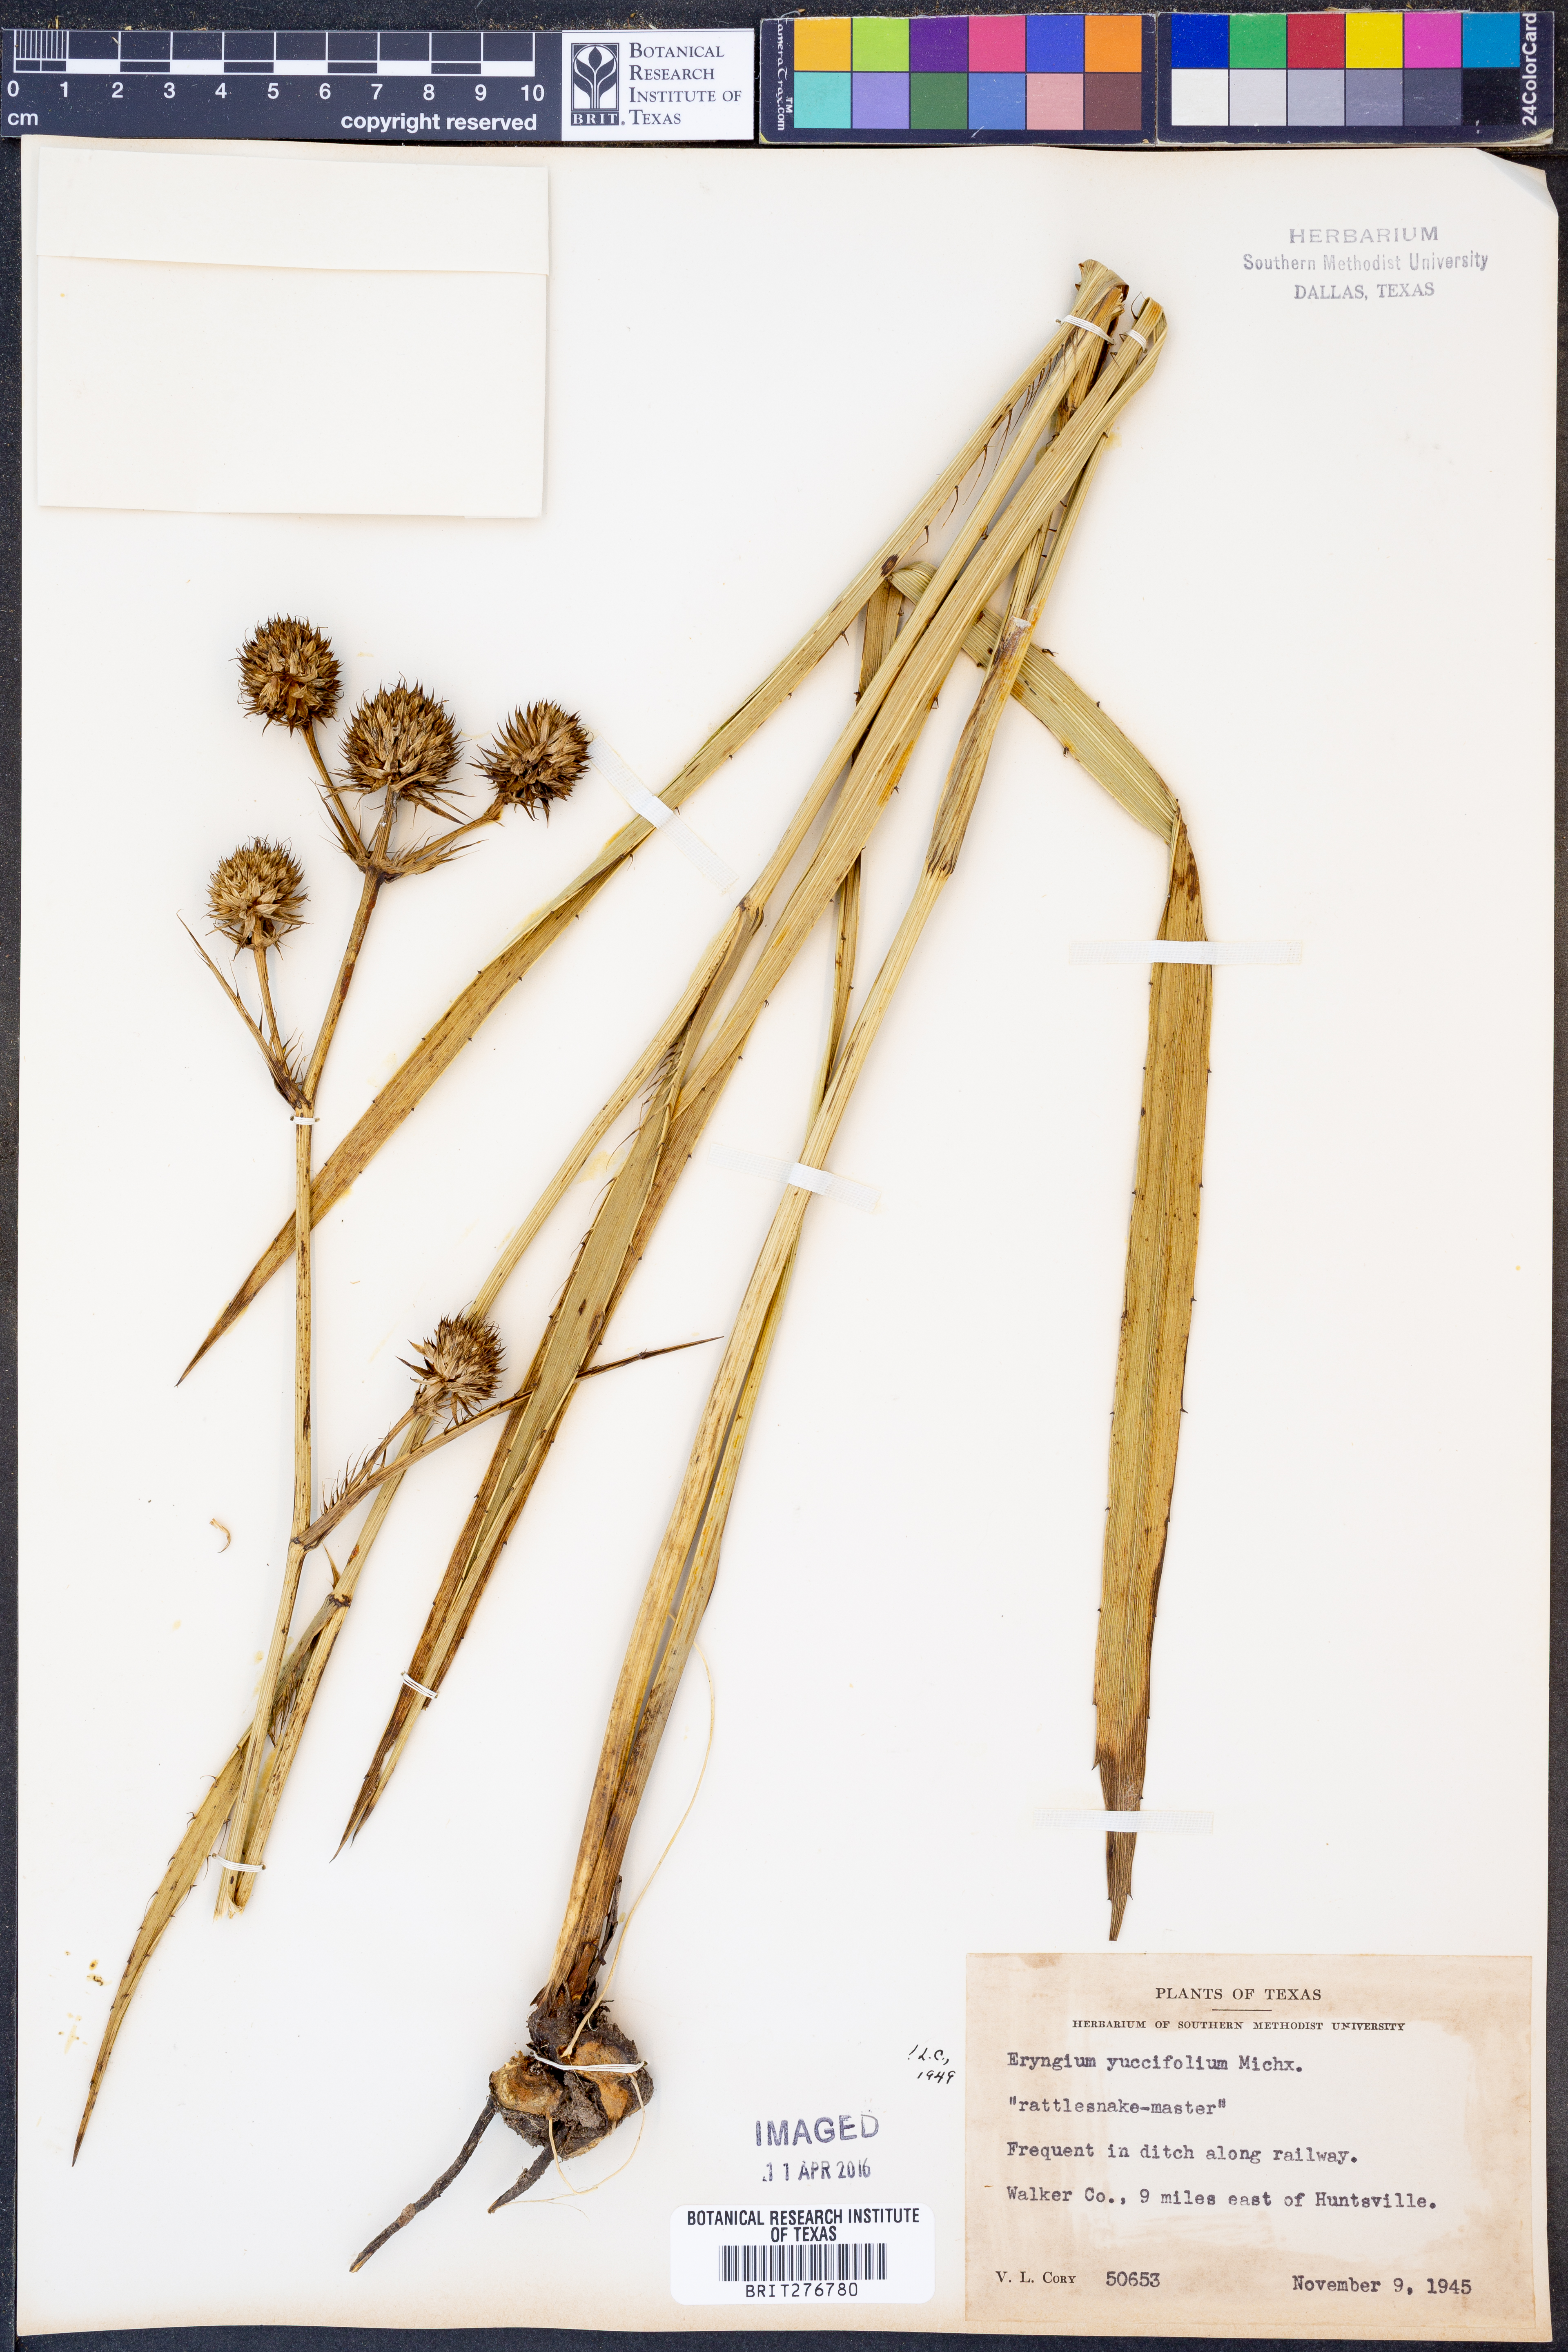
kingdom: Plantae
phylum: Tracheophyta
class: Magnoliopsida
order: Apiales
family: Apiaceae
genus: Eryngium
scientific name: Eryngium yuccifolium
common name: Button eryngo
